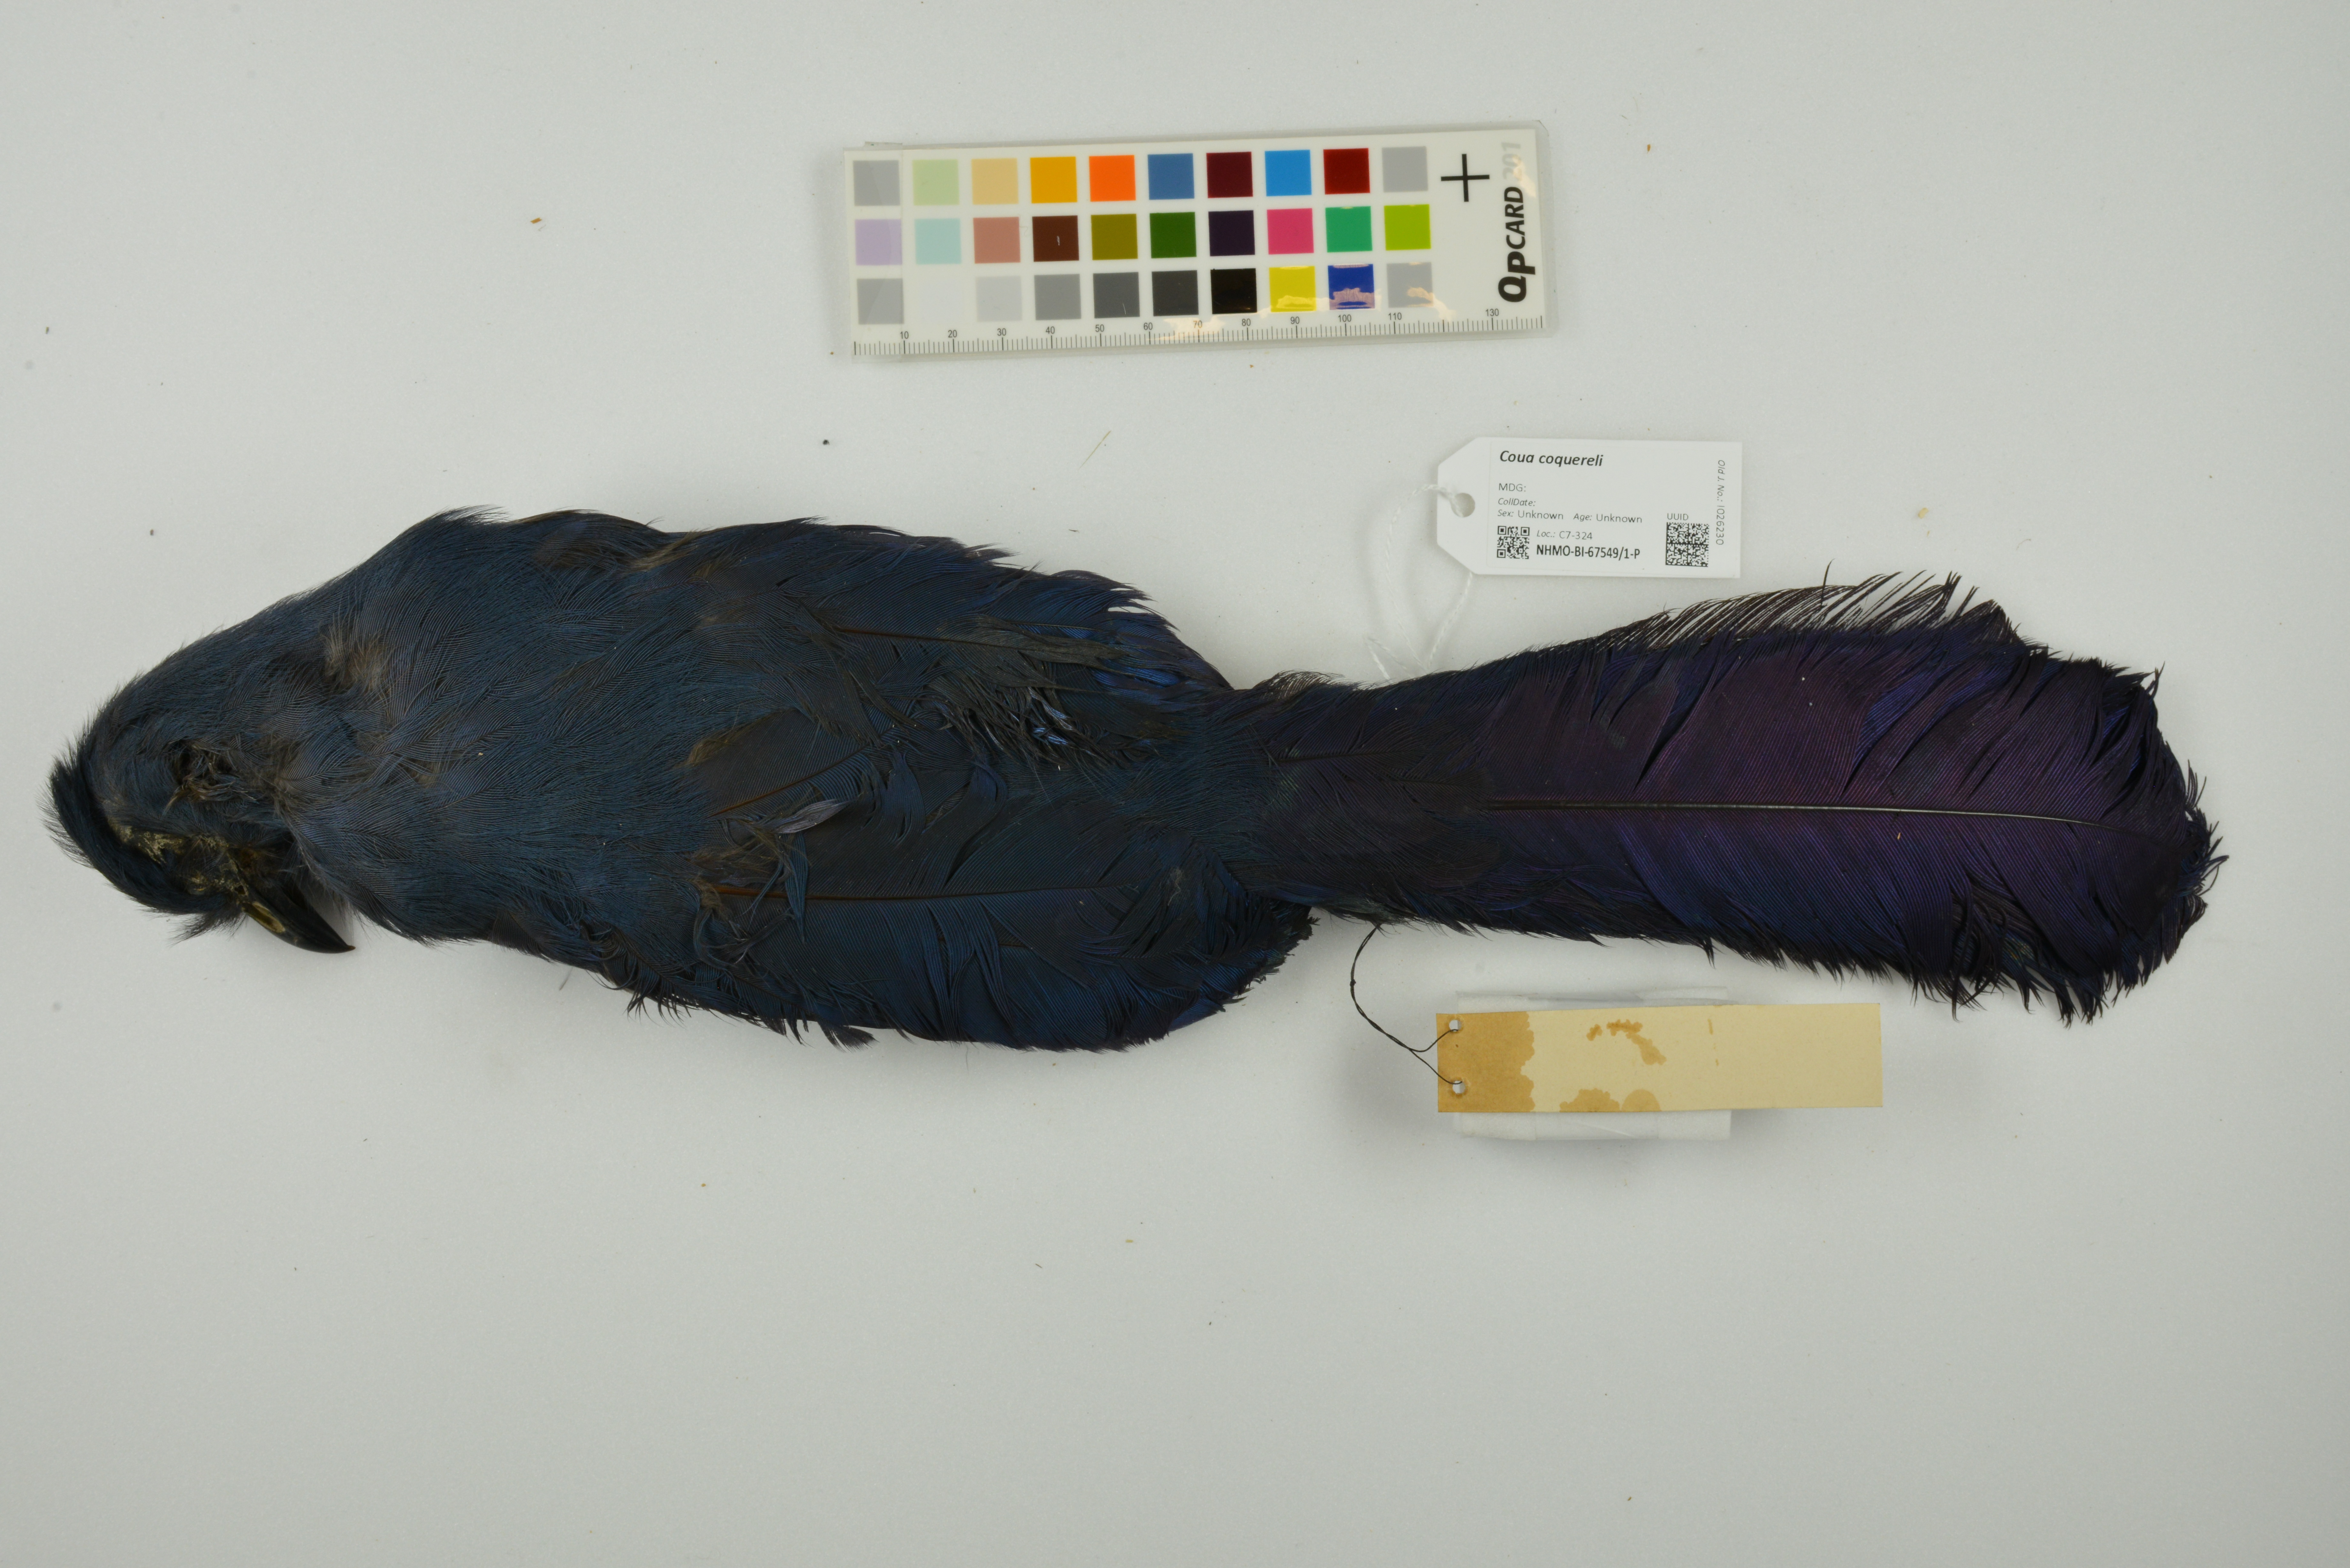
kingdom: Animalia
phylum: Chordata
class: Aves
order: Cuculiformes
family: Cuculidae
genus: Coua
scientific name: Coua coquereli
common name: Coquerel's coua
